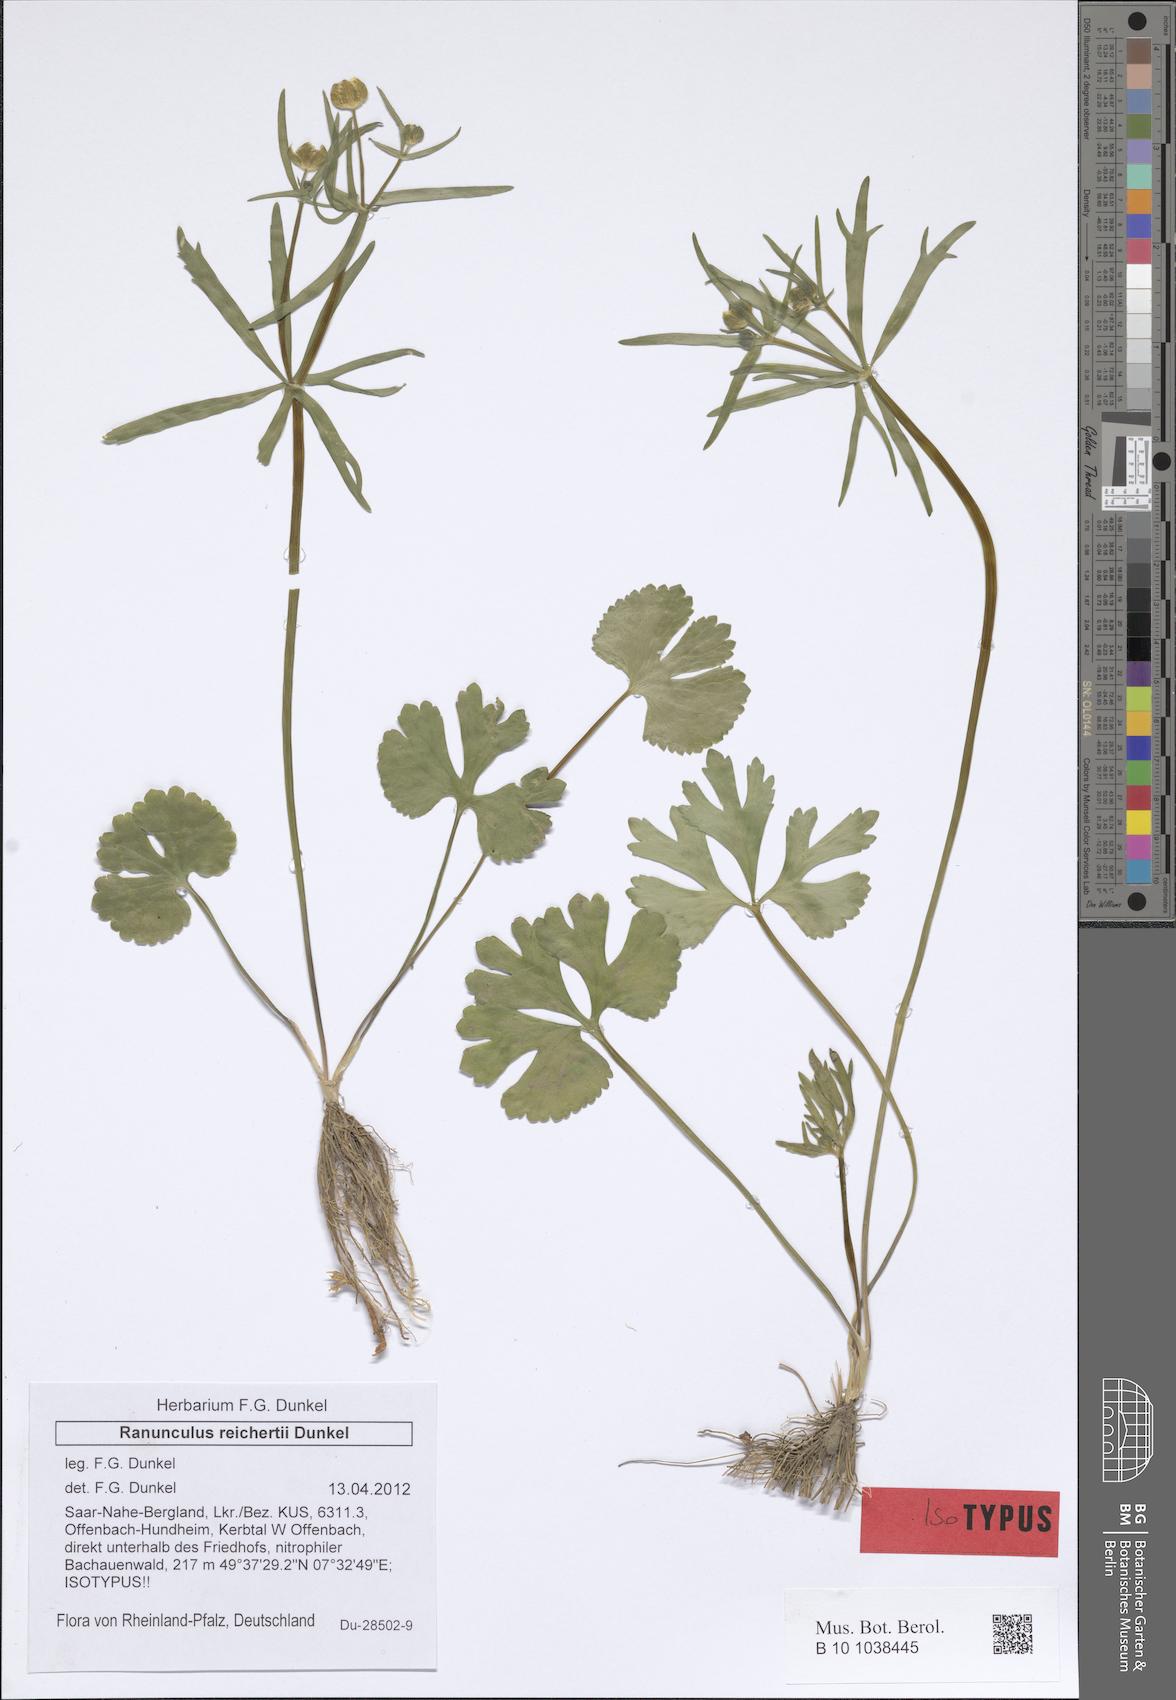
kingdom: Plantae
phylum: Tracheophyta
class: Magnoliopsida
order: Ranunculales
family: Ranunculaceae
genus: Ranunculus
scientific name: Ranunculus reichertii
